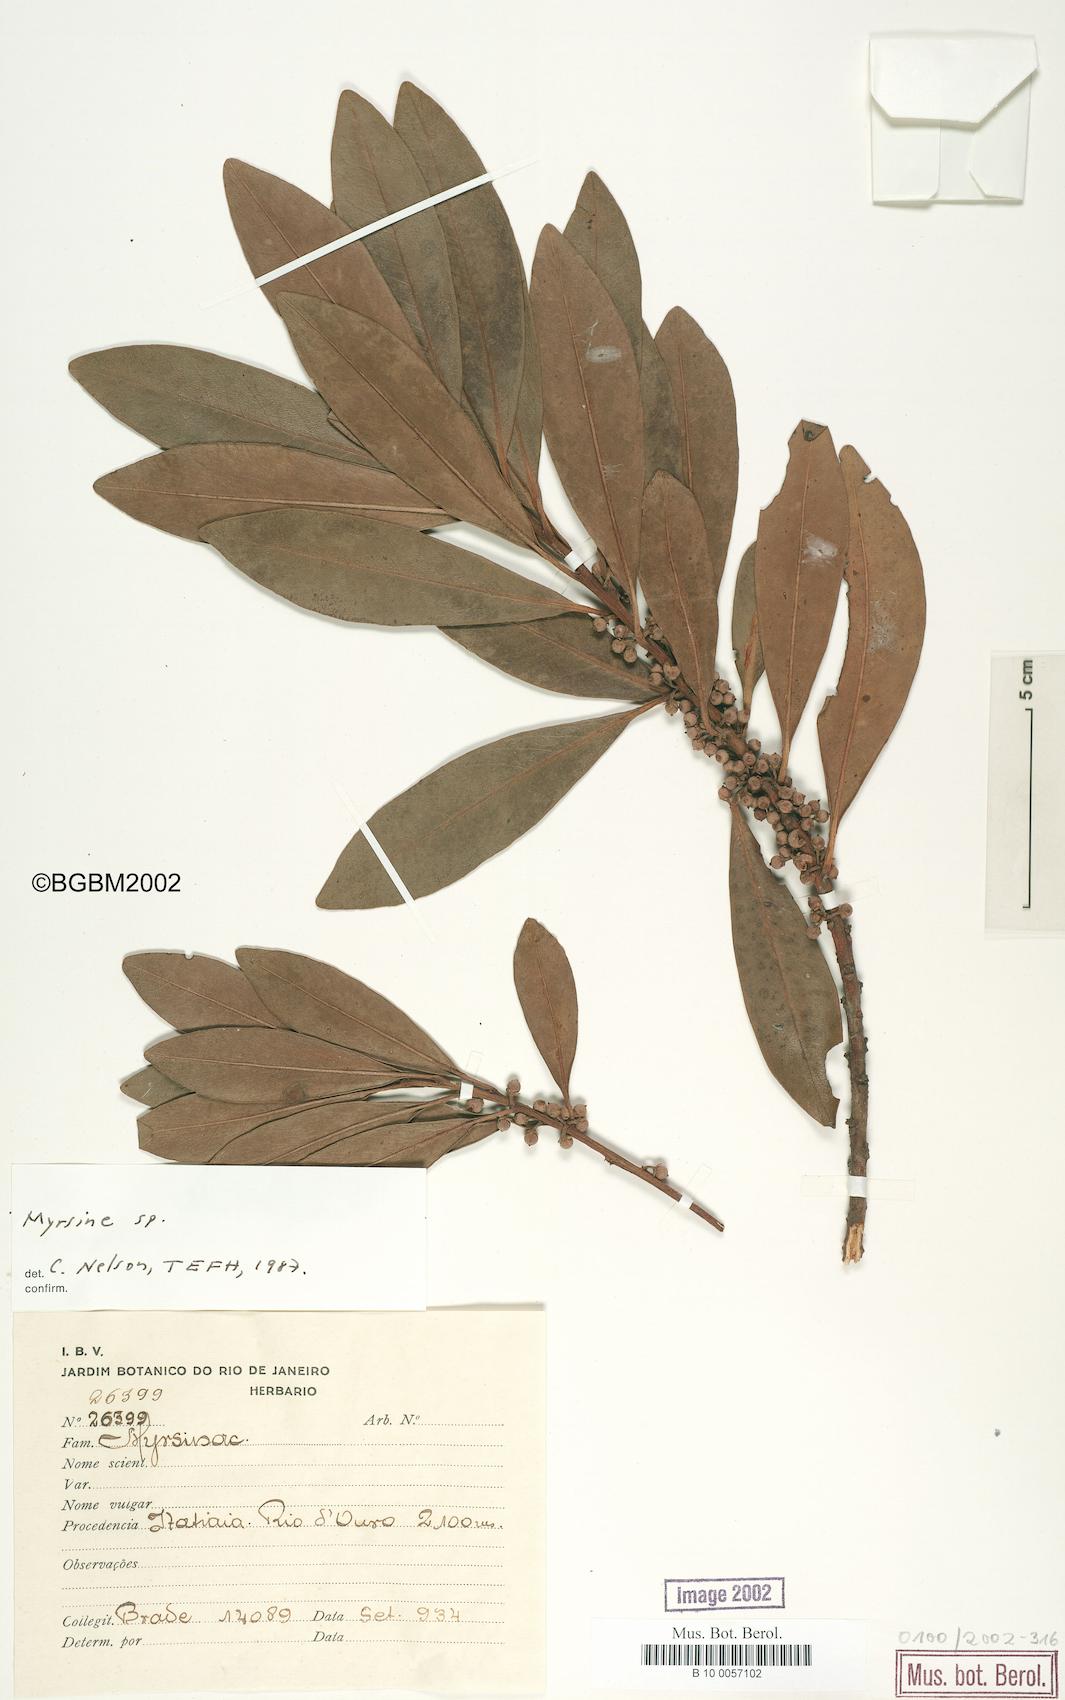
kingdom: Plantae
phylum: Tracheophyta
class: Magnoliopsida
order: Ericales
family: Primulaceae
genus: Myrsine
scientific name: Myrsine
